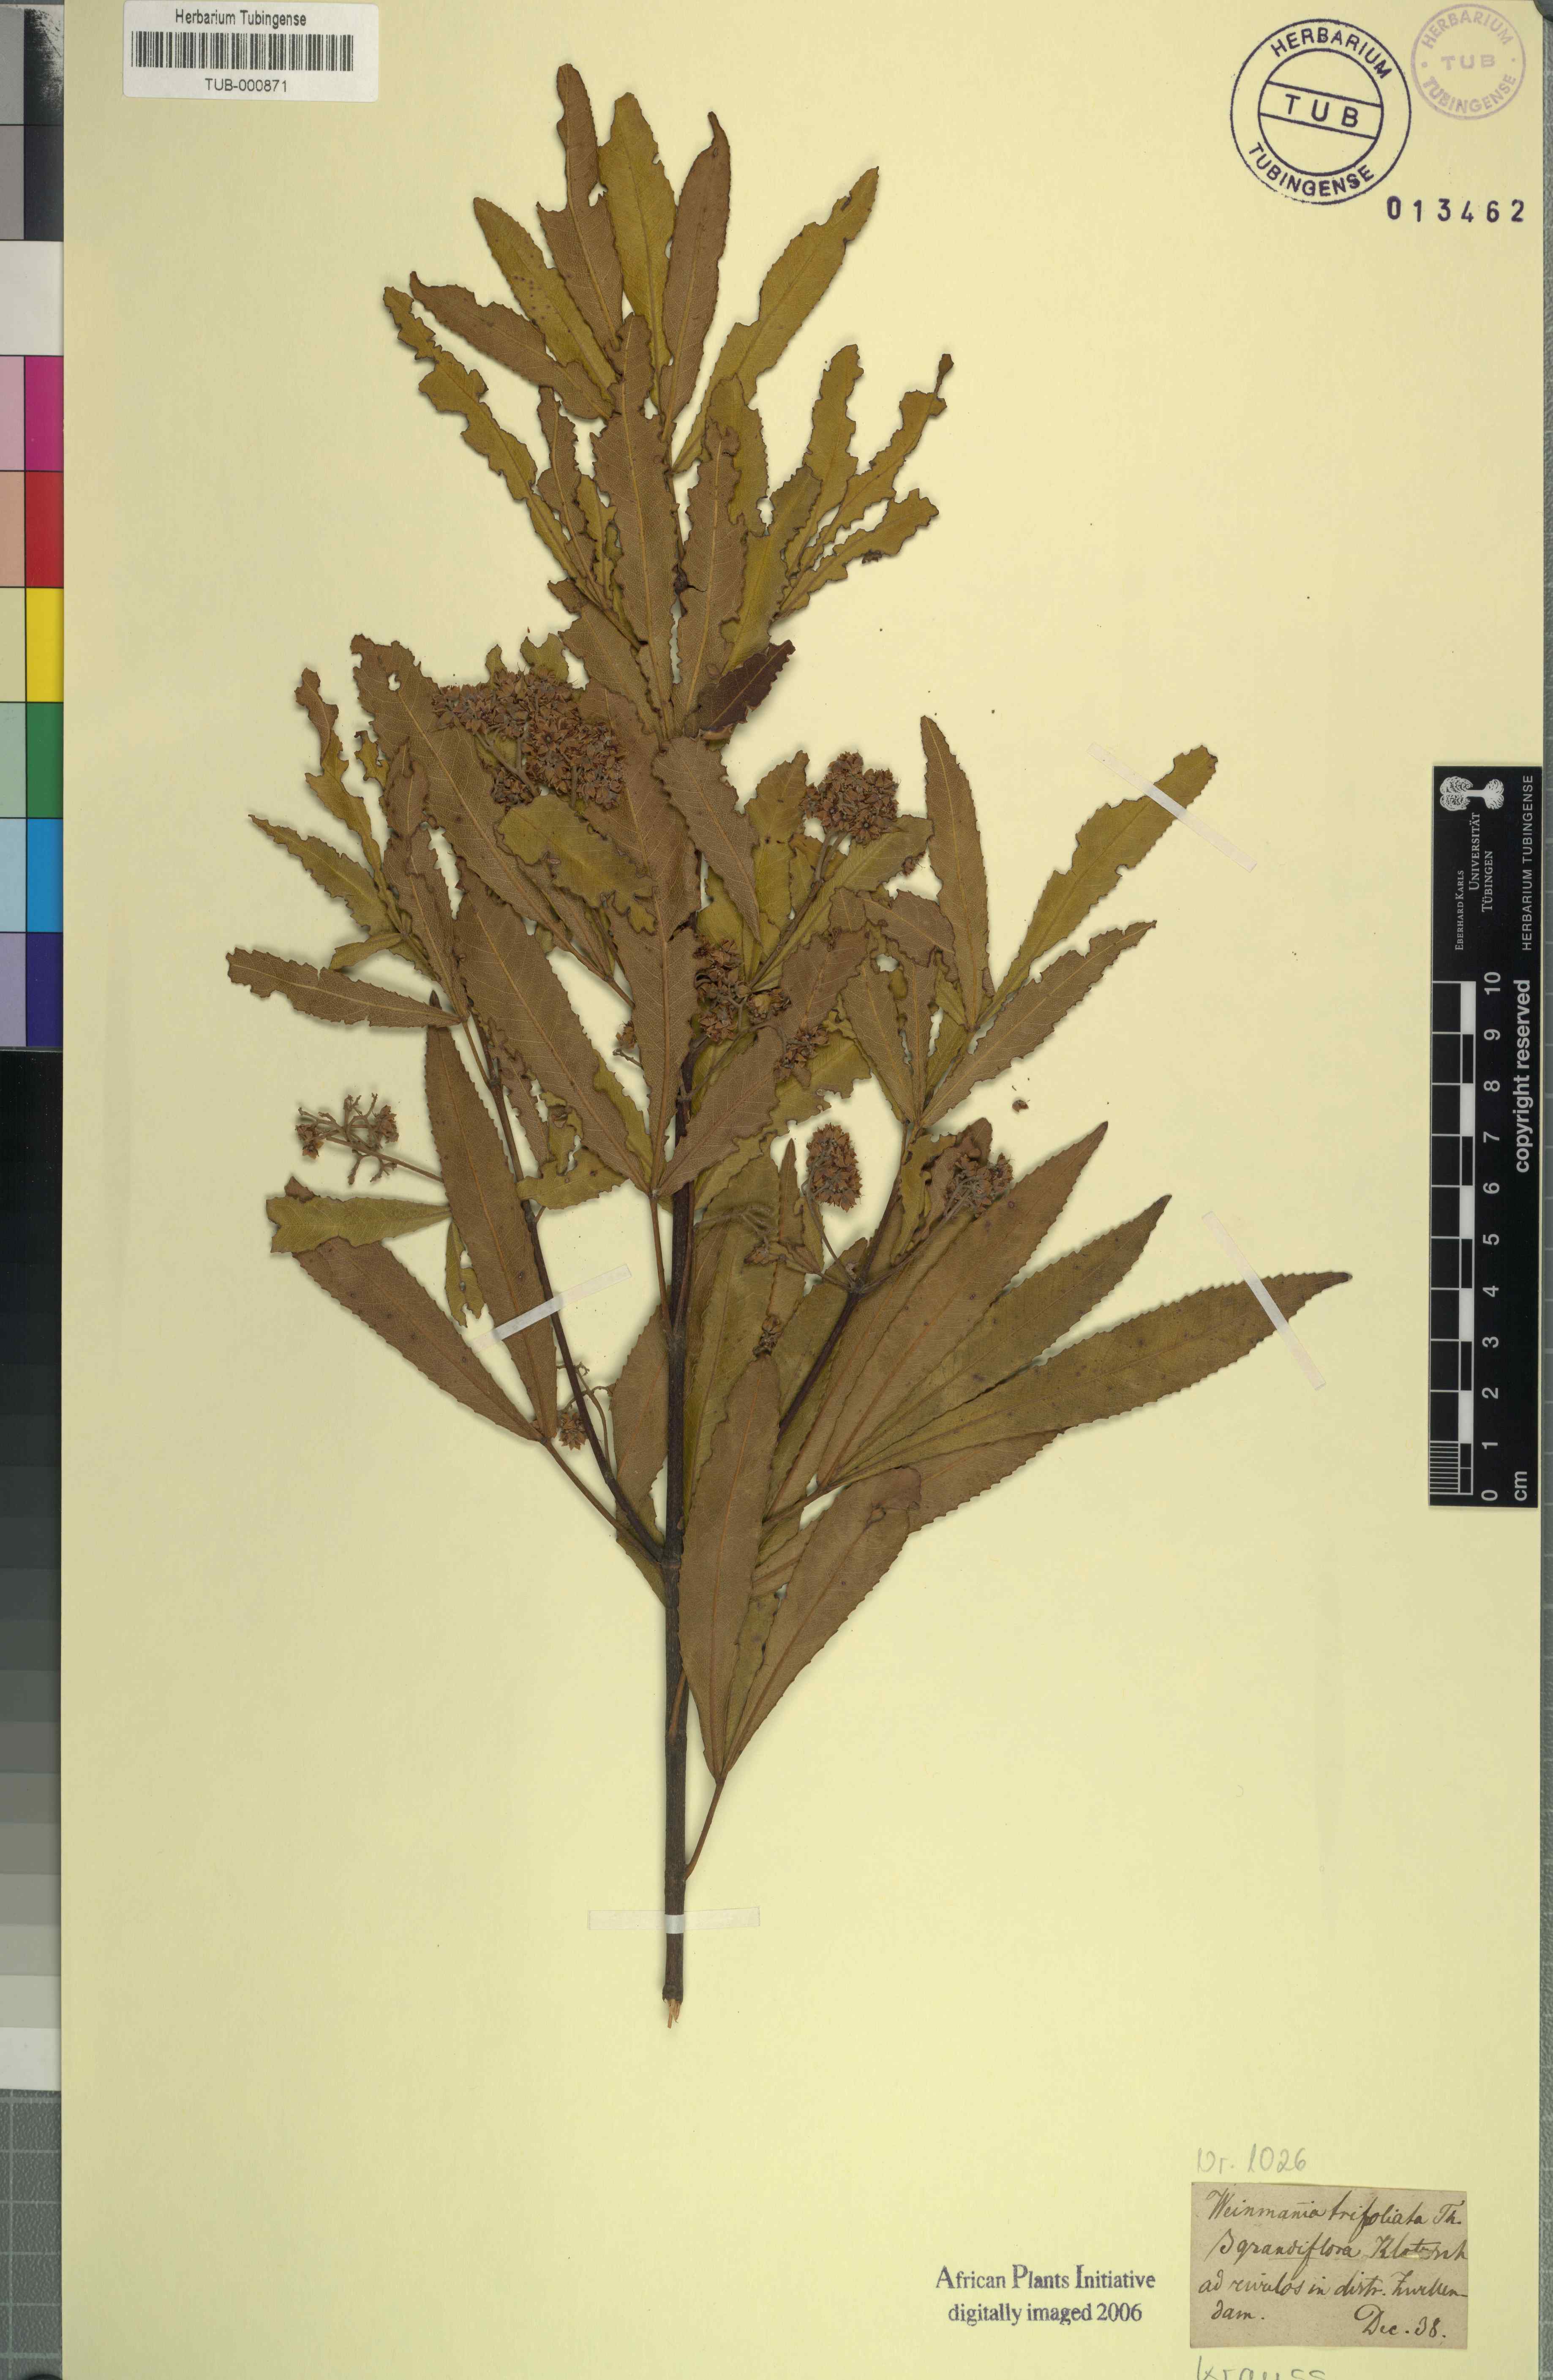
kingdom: Plantae
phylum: Tracheophyta
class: Magnoliopsida
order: Oxalidales
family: Cunoniaceae
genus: Platylophus
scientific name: Platylophus trifoliatus
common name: White alder
